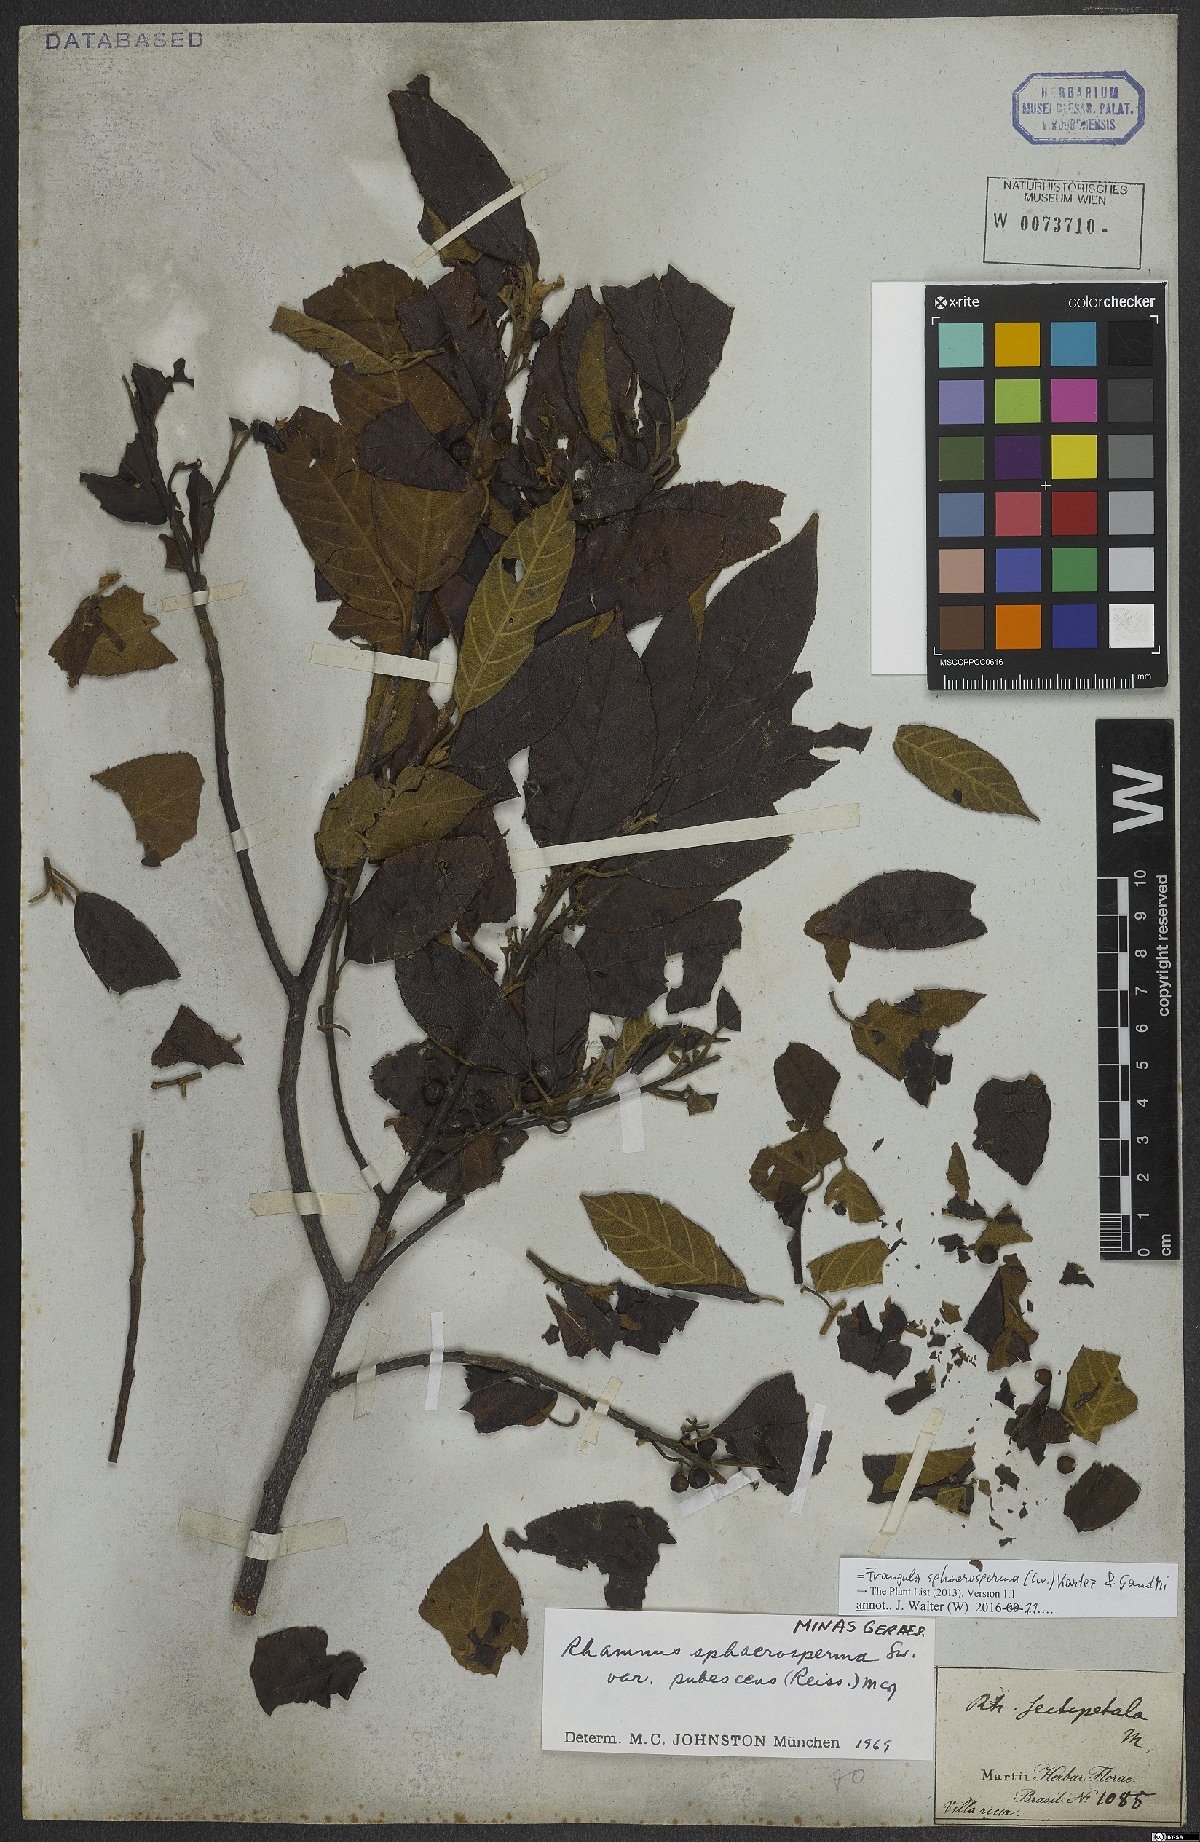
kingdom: Plantae
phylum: Tracheophyta
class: Magnoliopsida
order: Rosales
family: Rhamnaceae
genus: Frangula
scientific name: Frangula sphaerosperma
